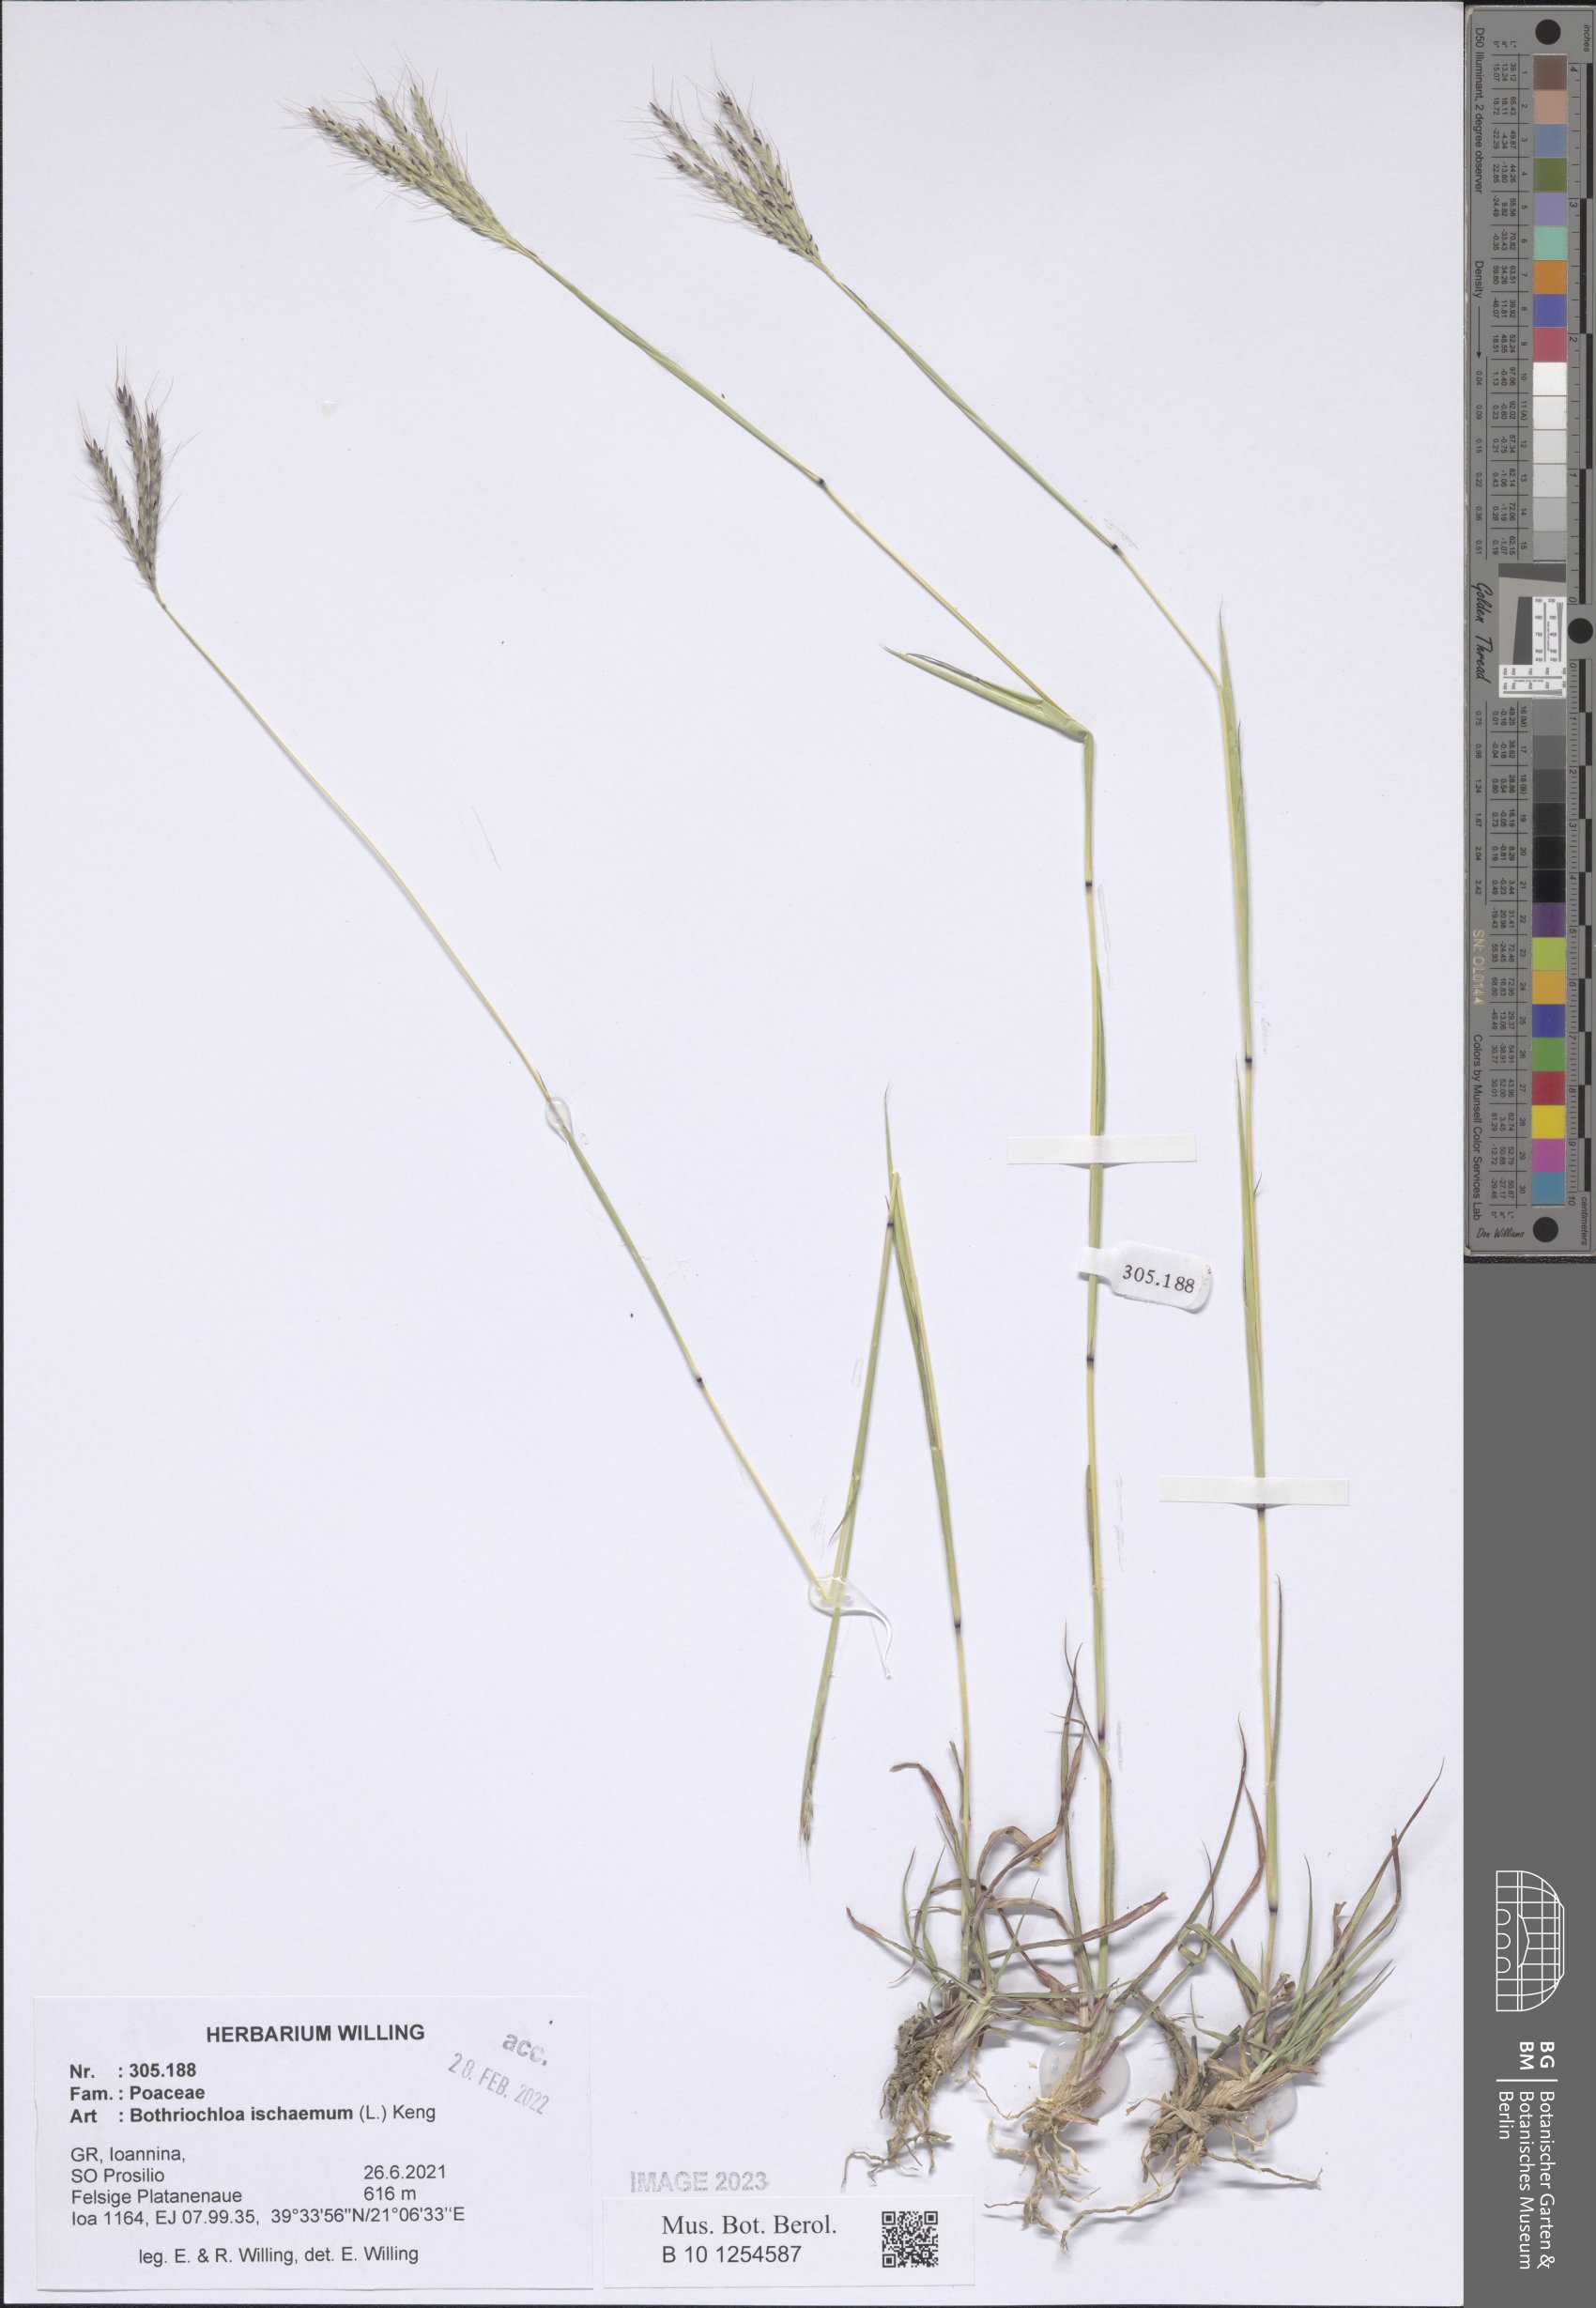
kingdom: Plantae
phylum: Tracheophyta
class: Liliopsida
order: Poales
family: Poaceae
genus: Bothriochloa
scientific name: Bothriochloa ischaemum
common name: Yellow bluestem
